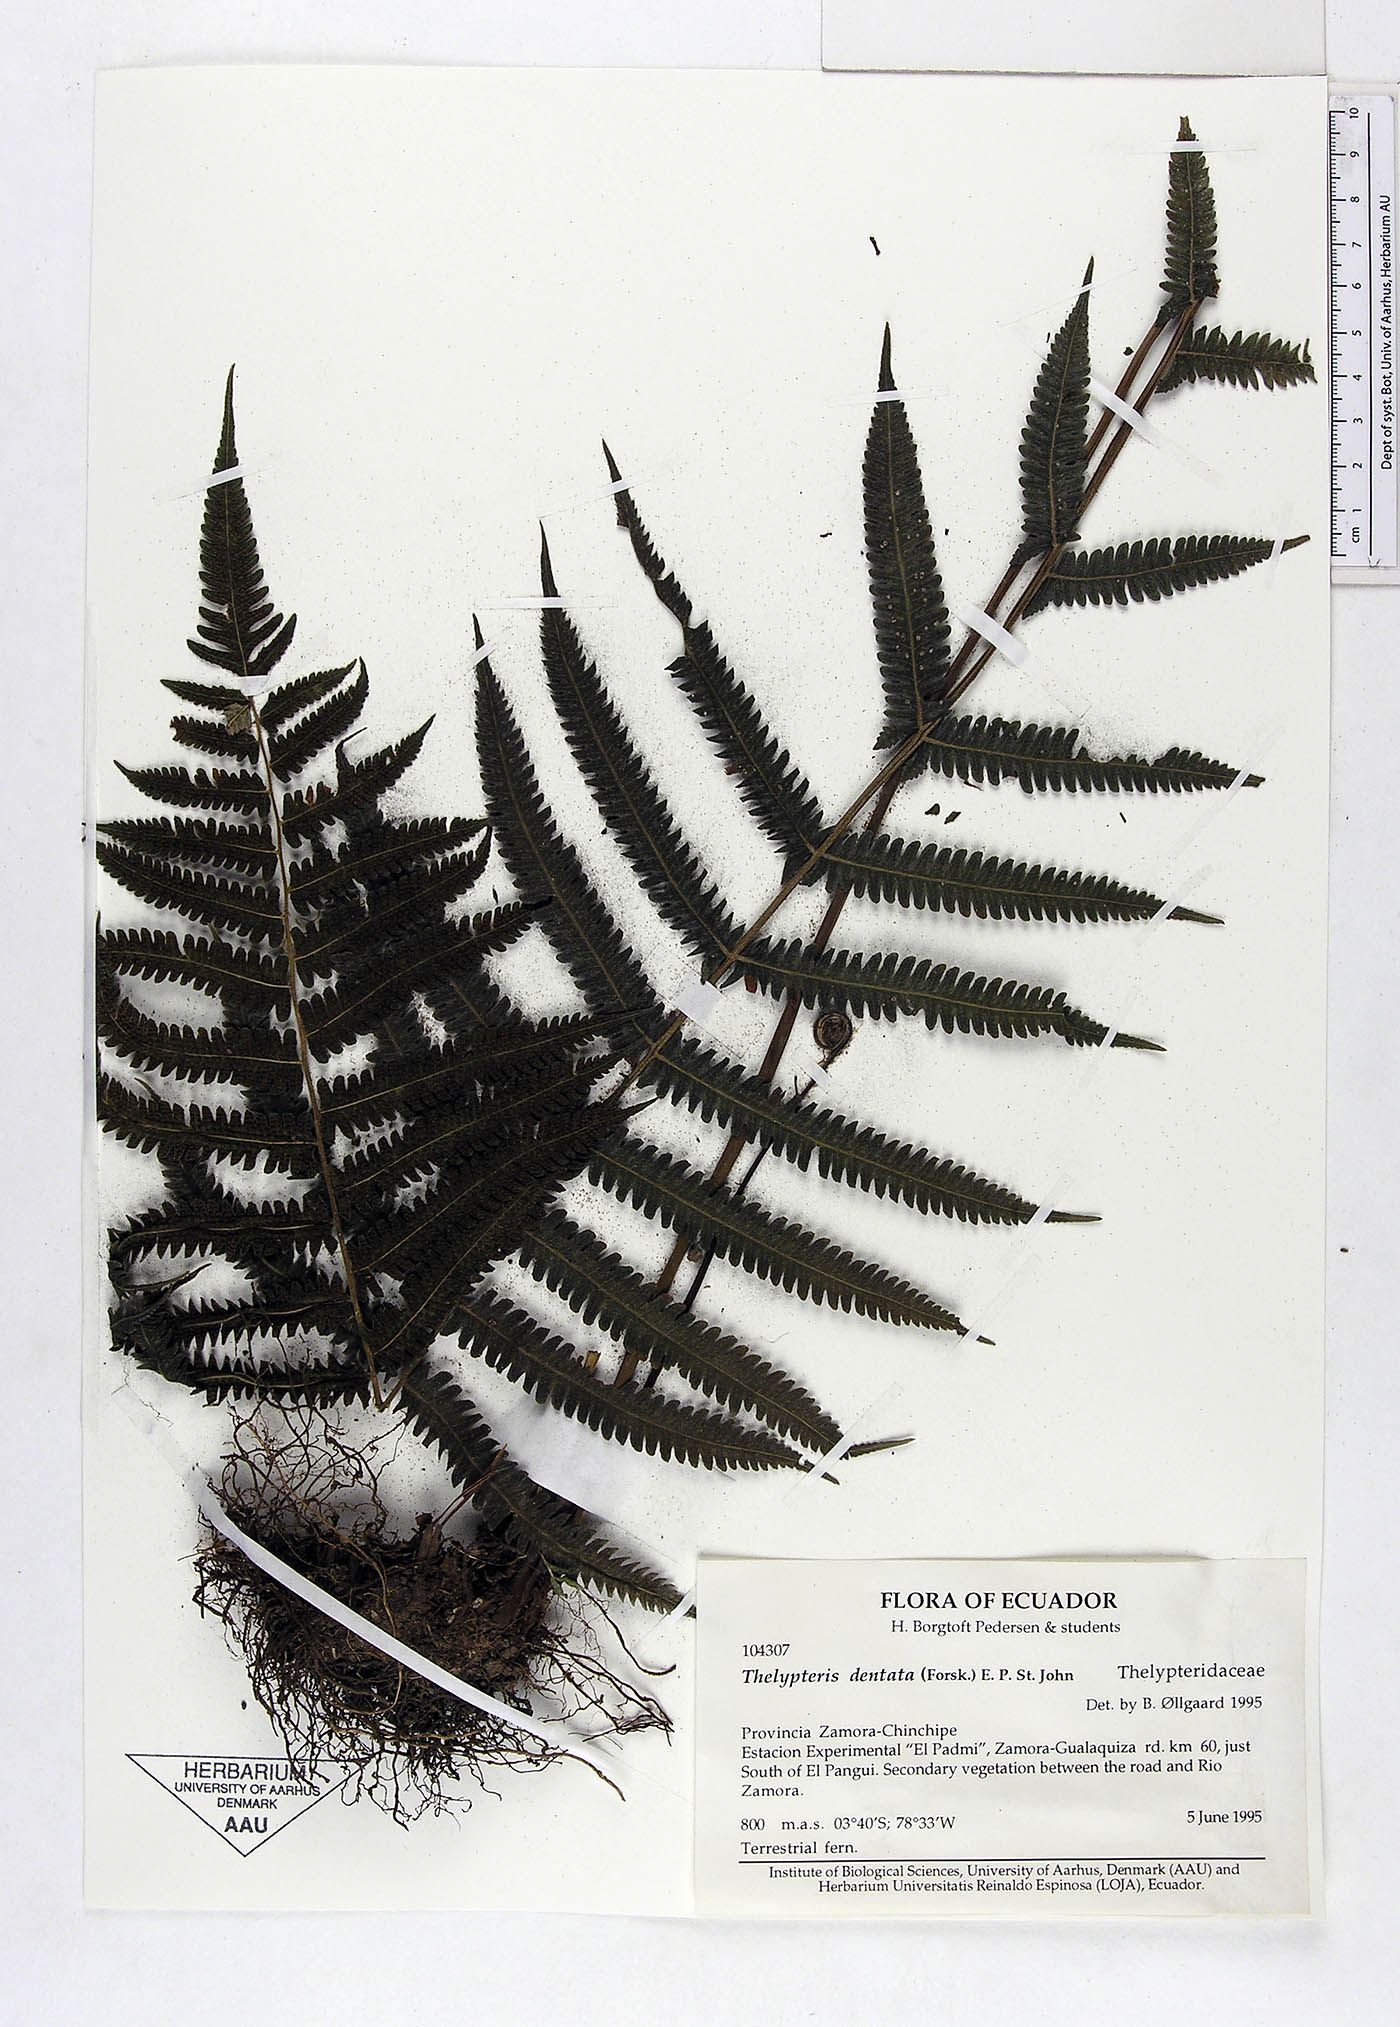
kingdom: Plantae
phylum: Tracheophyta
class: Polypodiopsida
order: Polypodiales
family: Thelypteridaceae
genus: Christella
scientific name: Christella dentata
